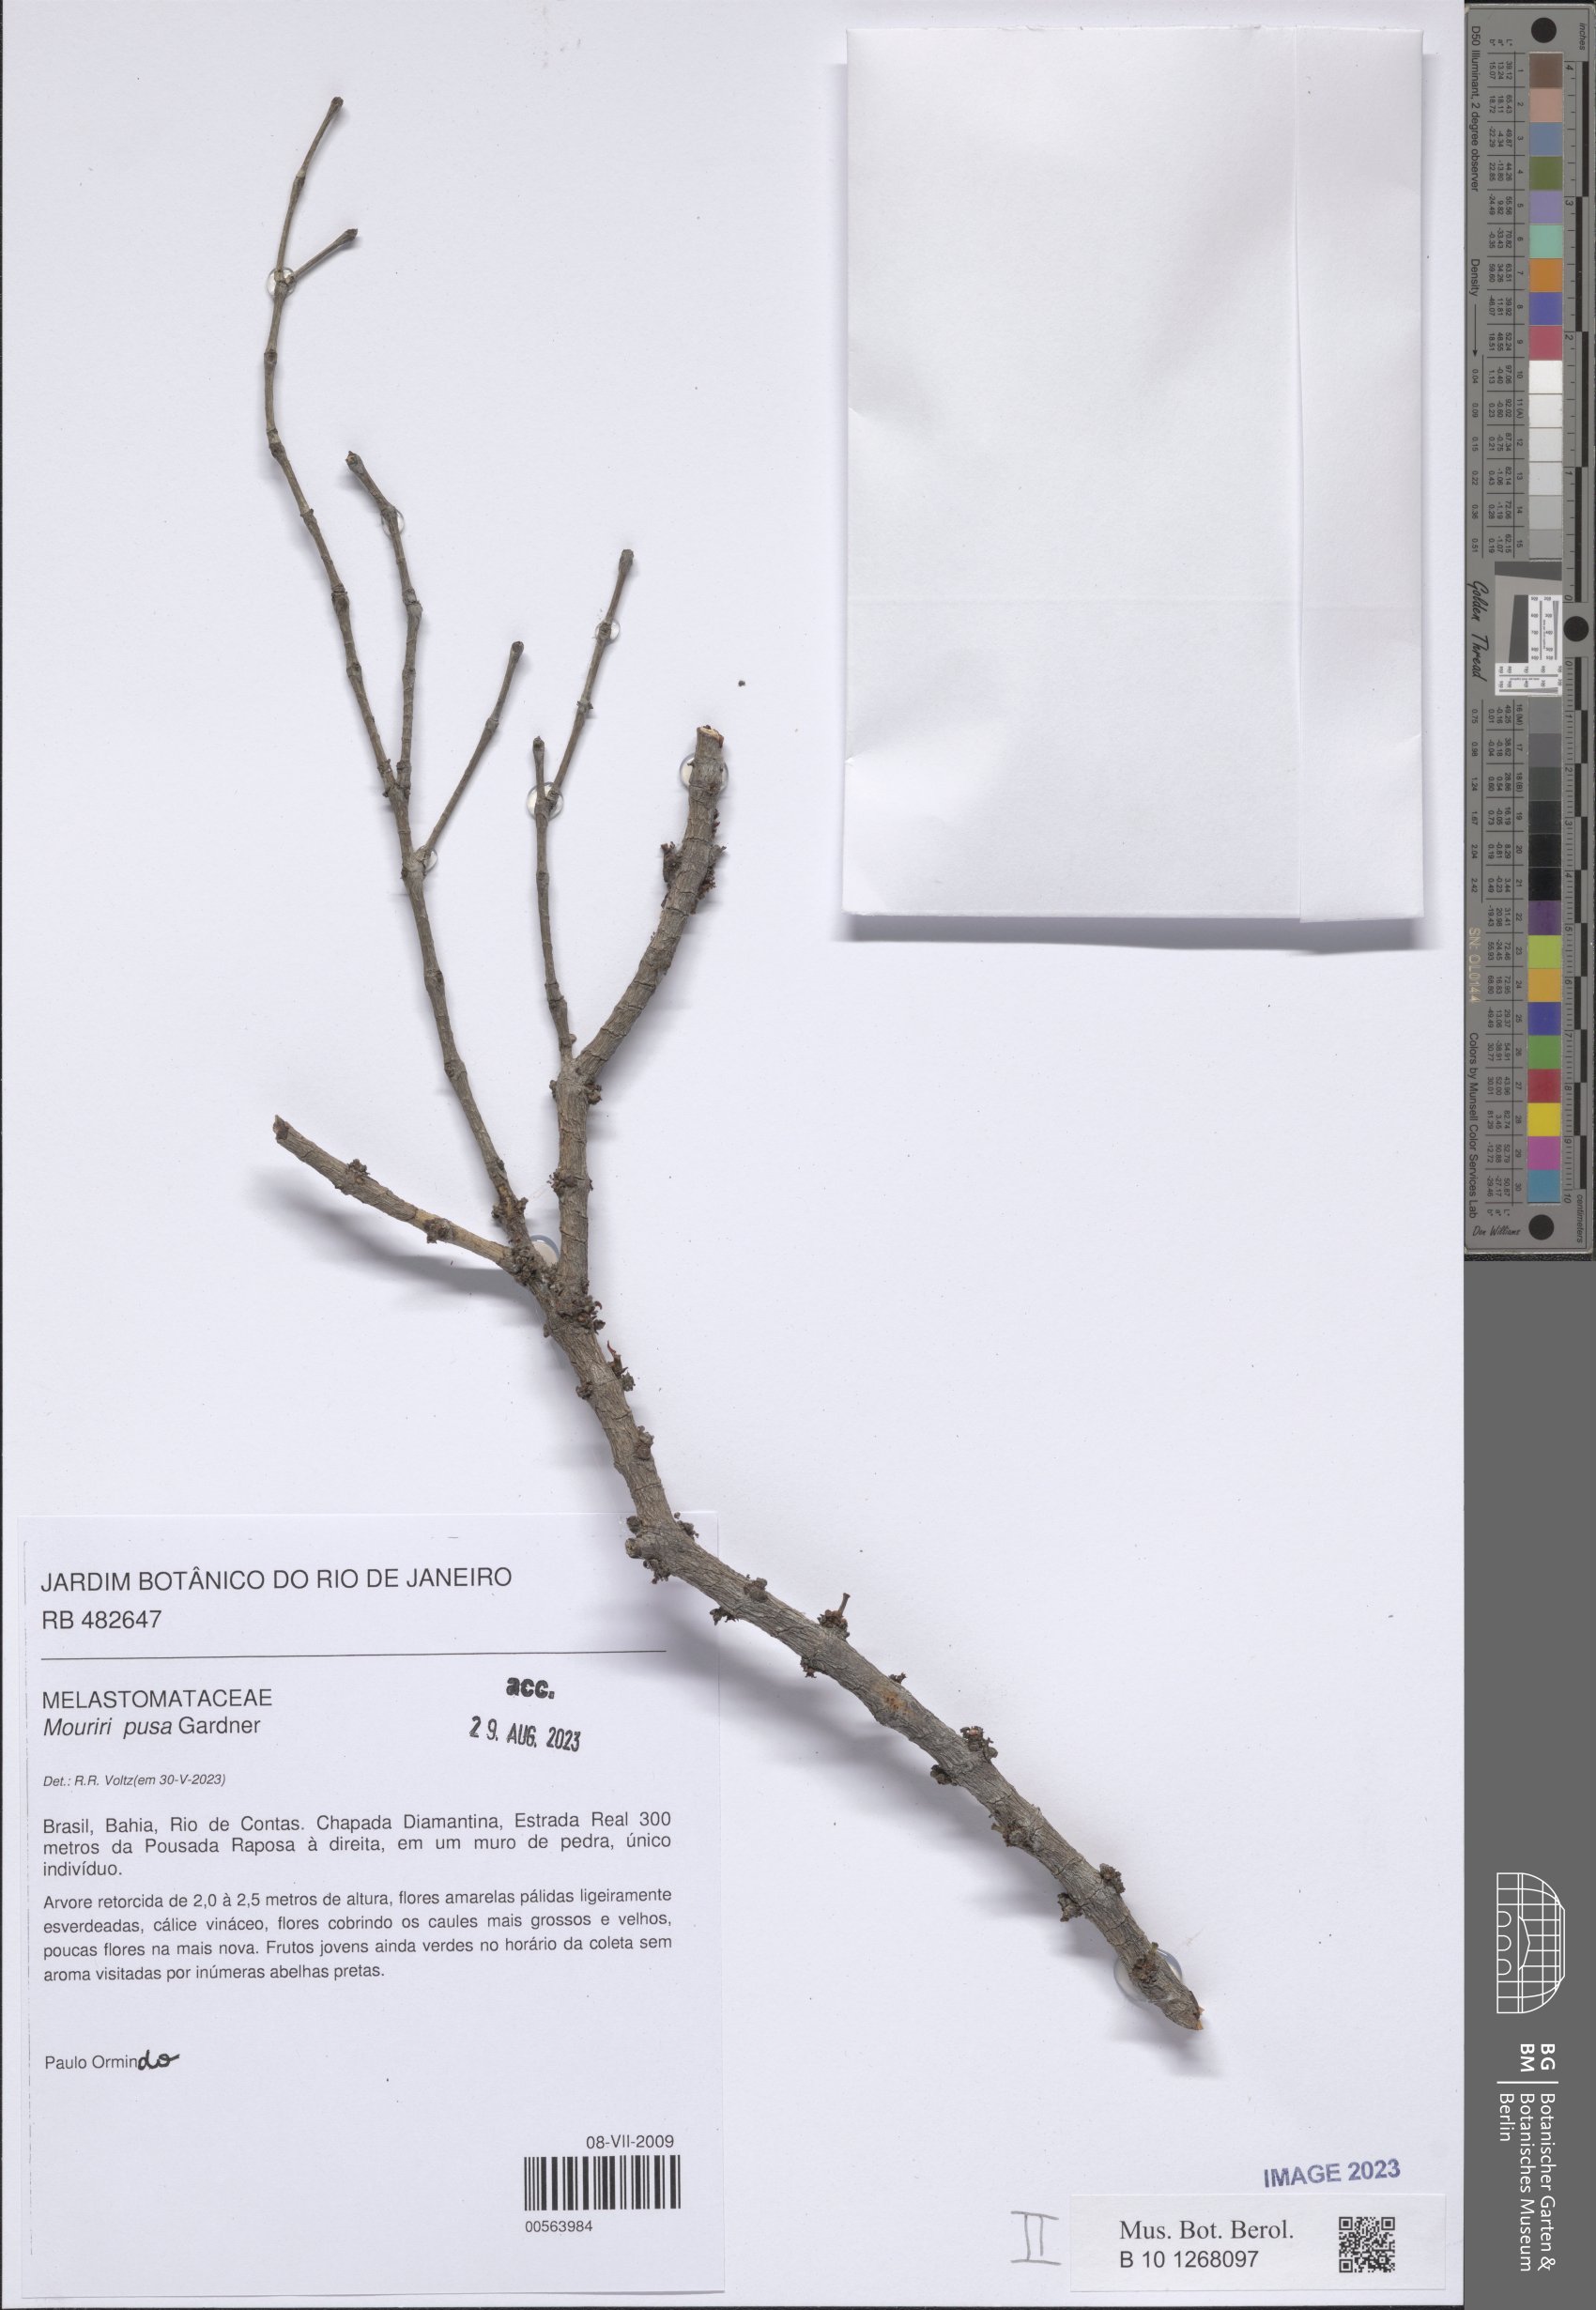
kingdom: Plantae
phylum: Tracheophyta
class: Magnoliopsida
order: Myrtales
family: Melastomataceae
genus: Mouriri
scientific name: Mouriri pusa
